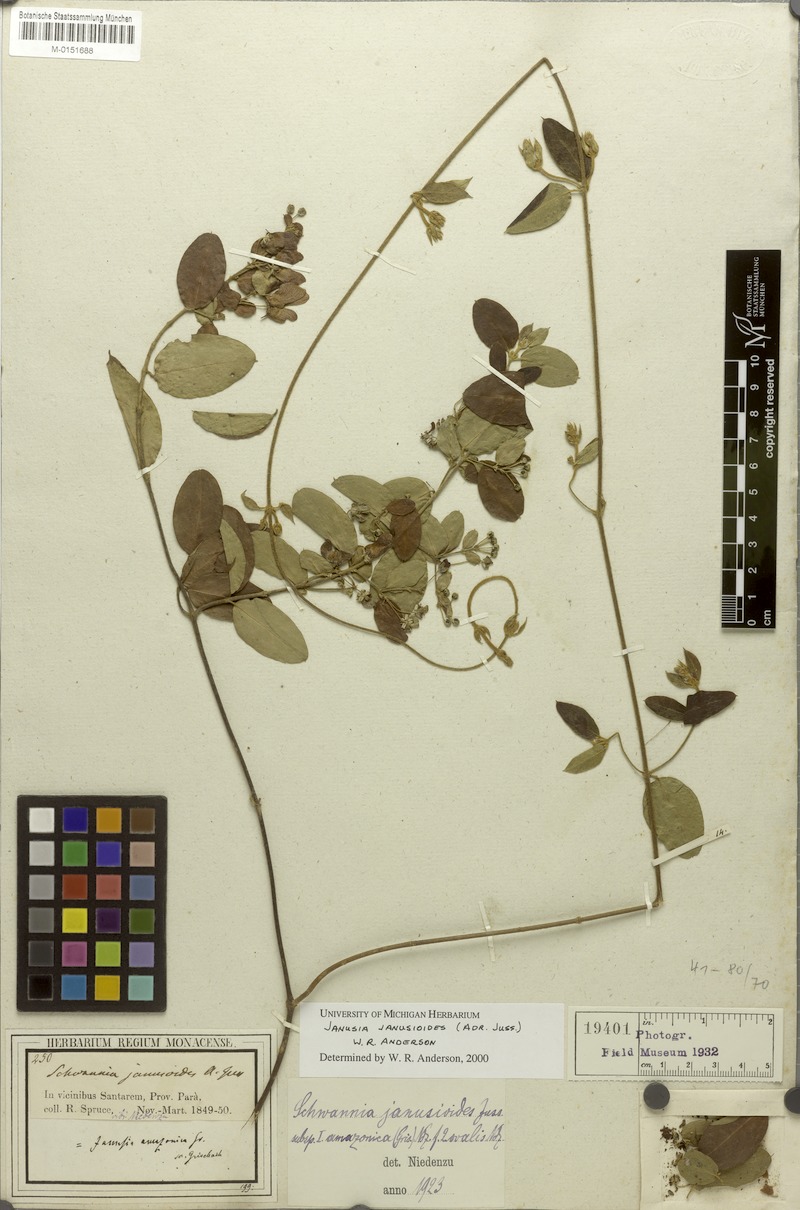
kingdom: Plantae
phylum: Tracheophyta
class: Magnoliopsida
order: Malpighiales
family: Malpighiaceae
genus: Janusia
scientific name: Janusia janusioides
